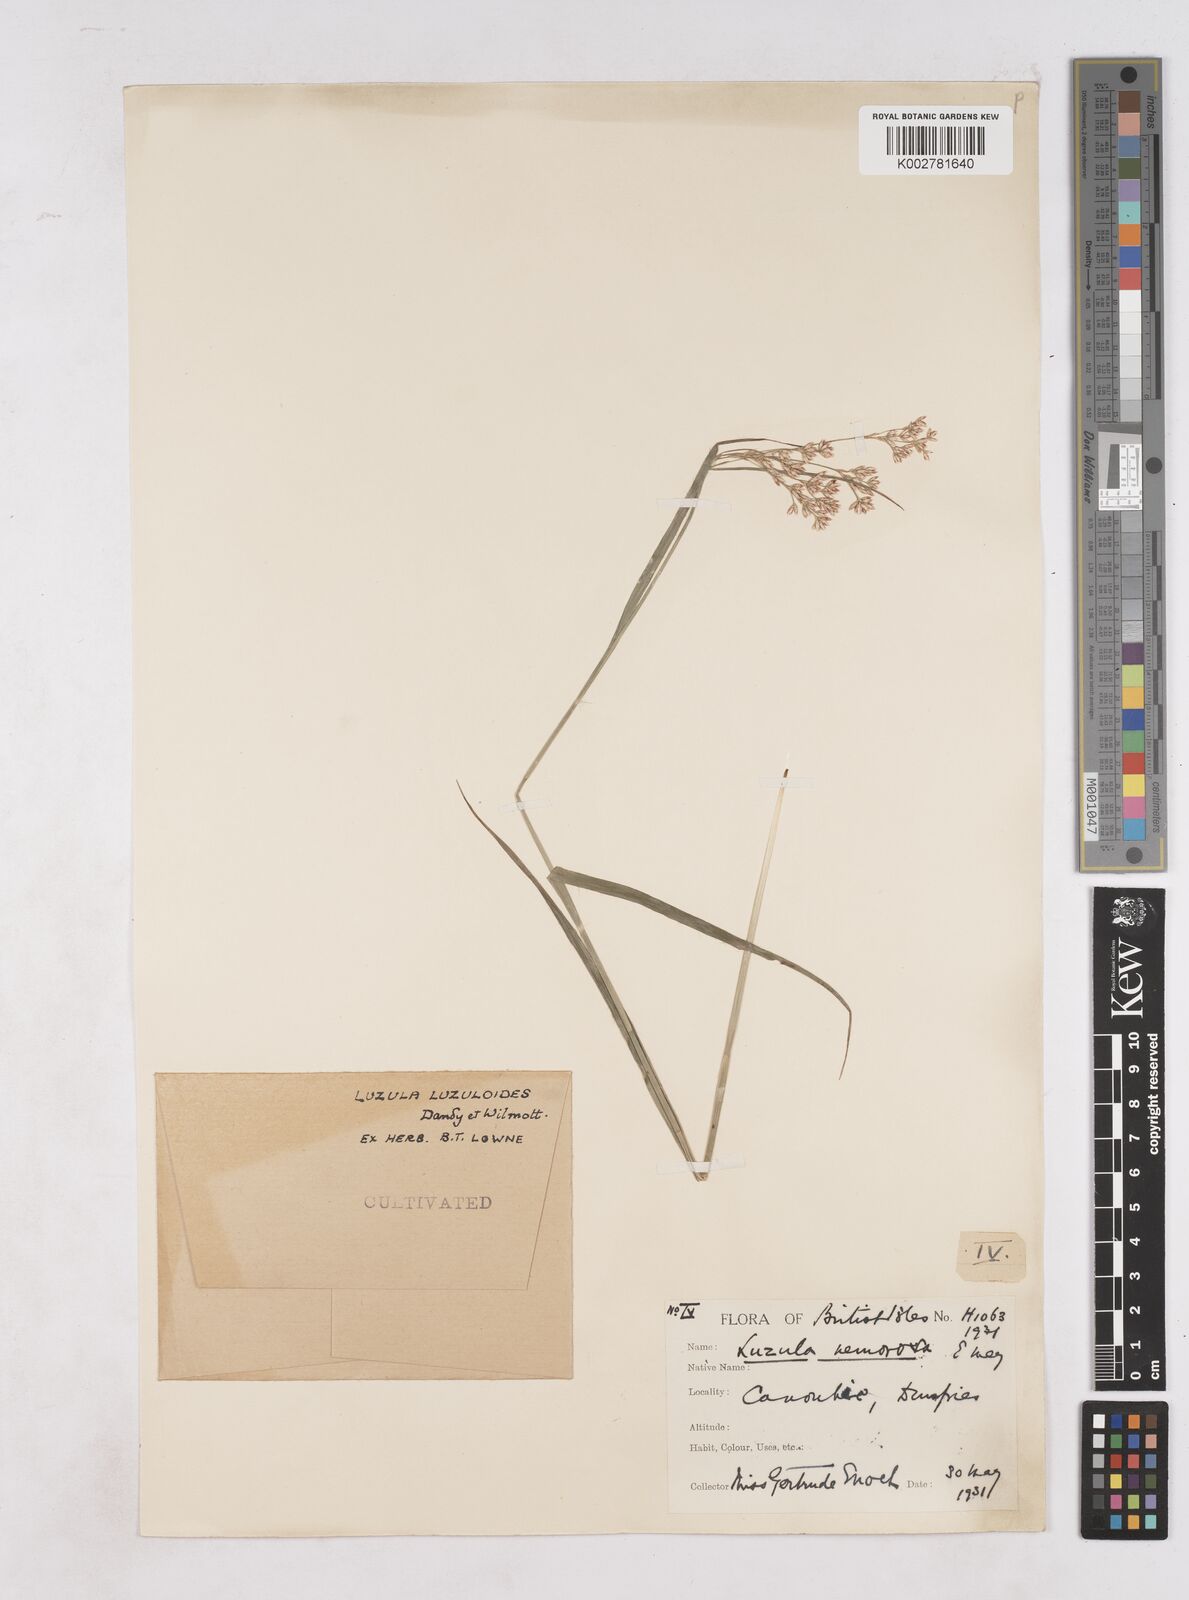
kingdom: Plantae
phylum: Tracheophyta
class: Liliopsida
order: Poales
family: Juncaceae
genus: Luzula
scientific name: Luzula luzuloides
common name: White wood-rush
